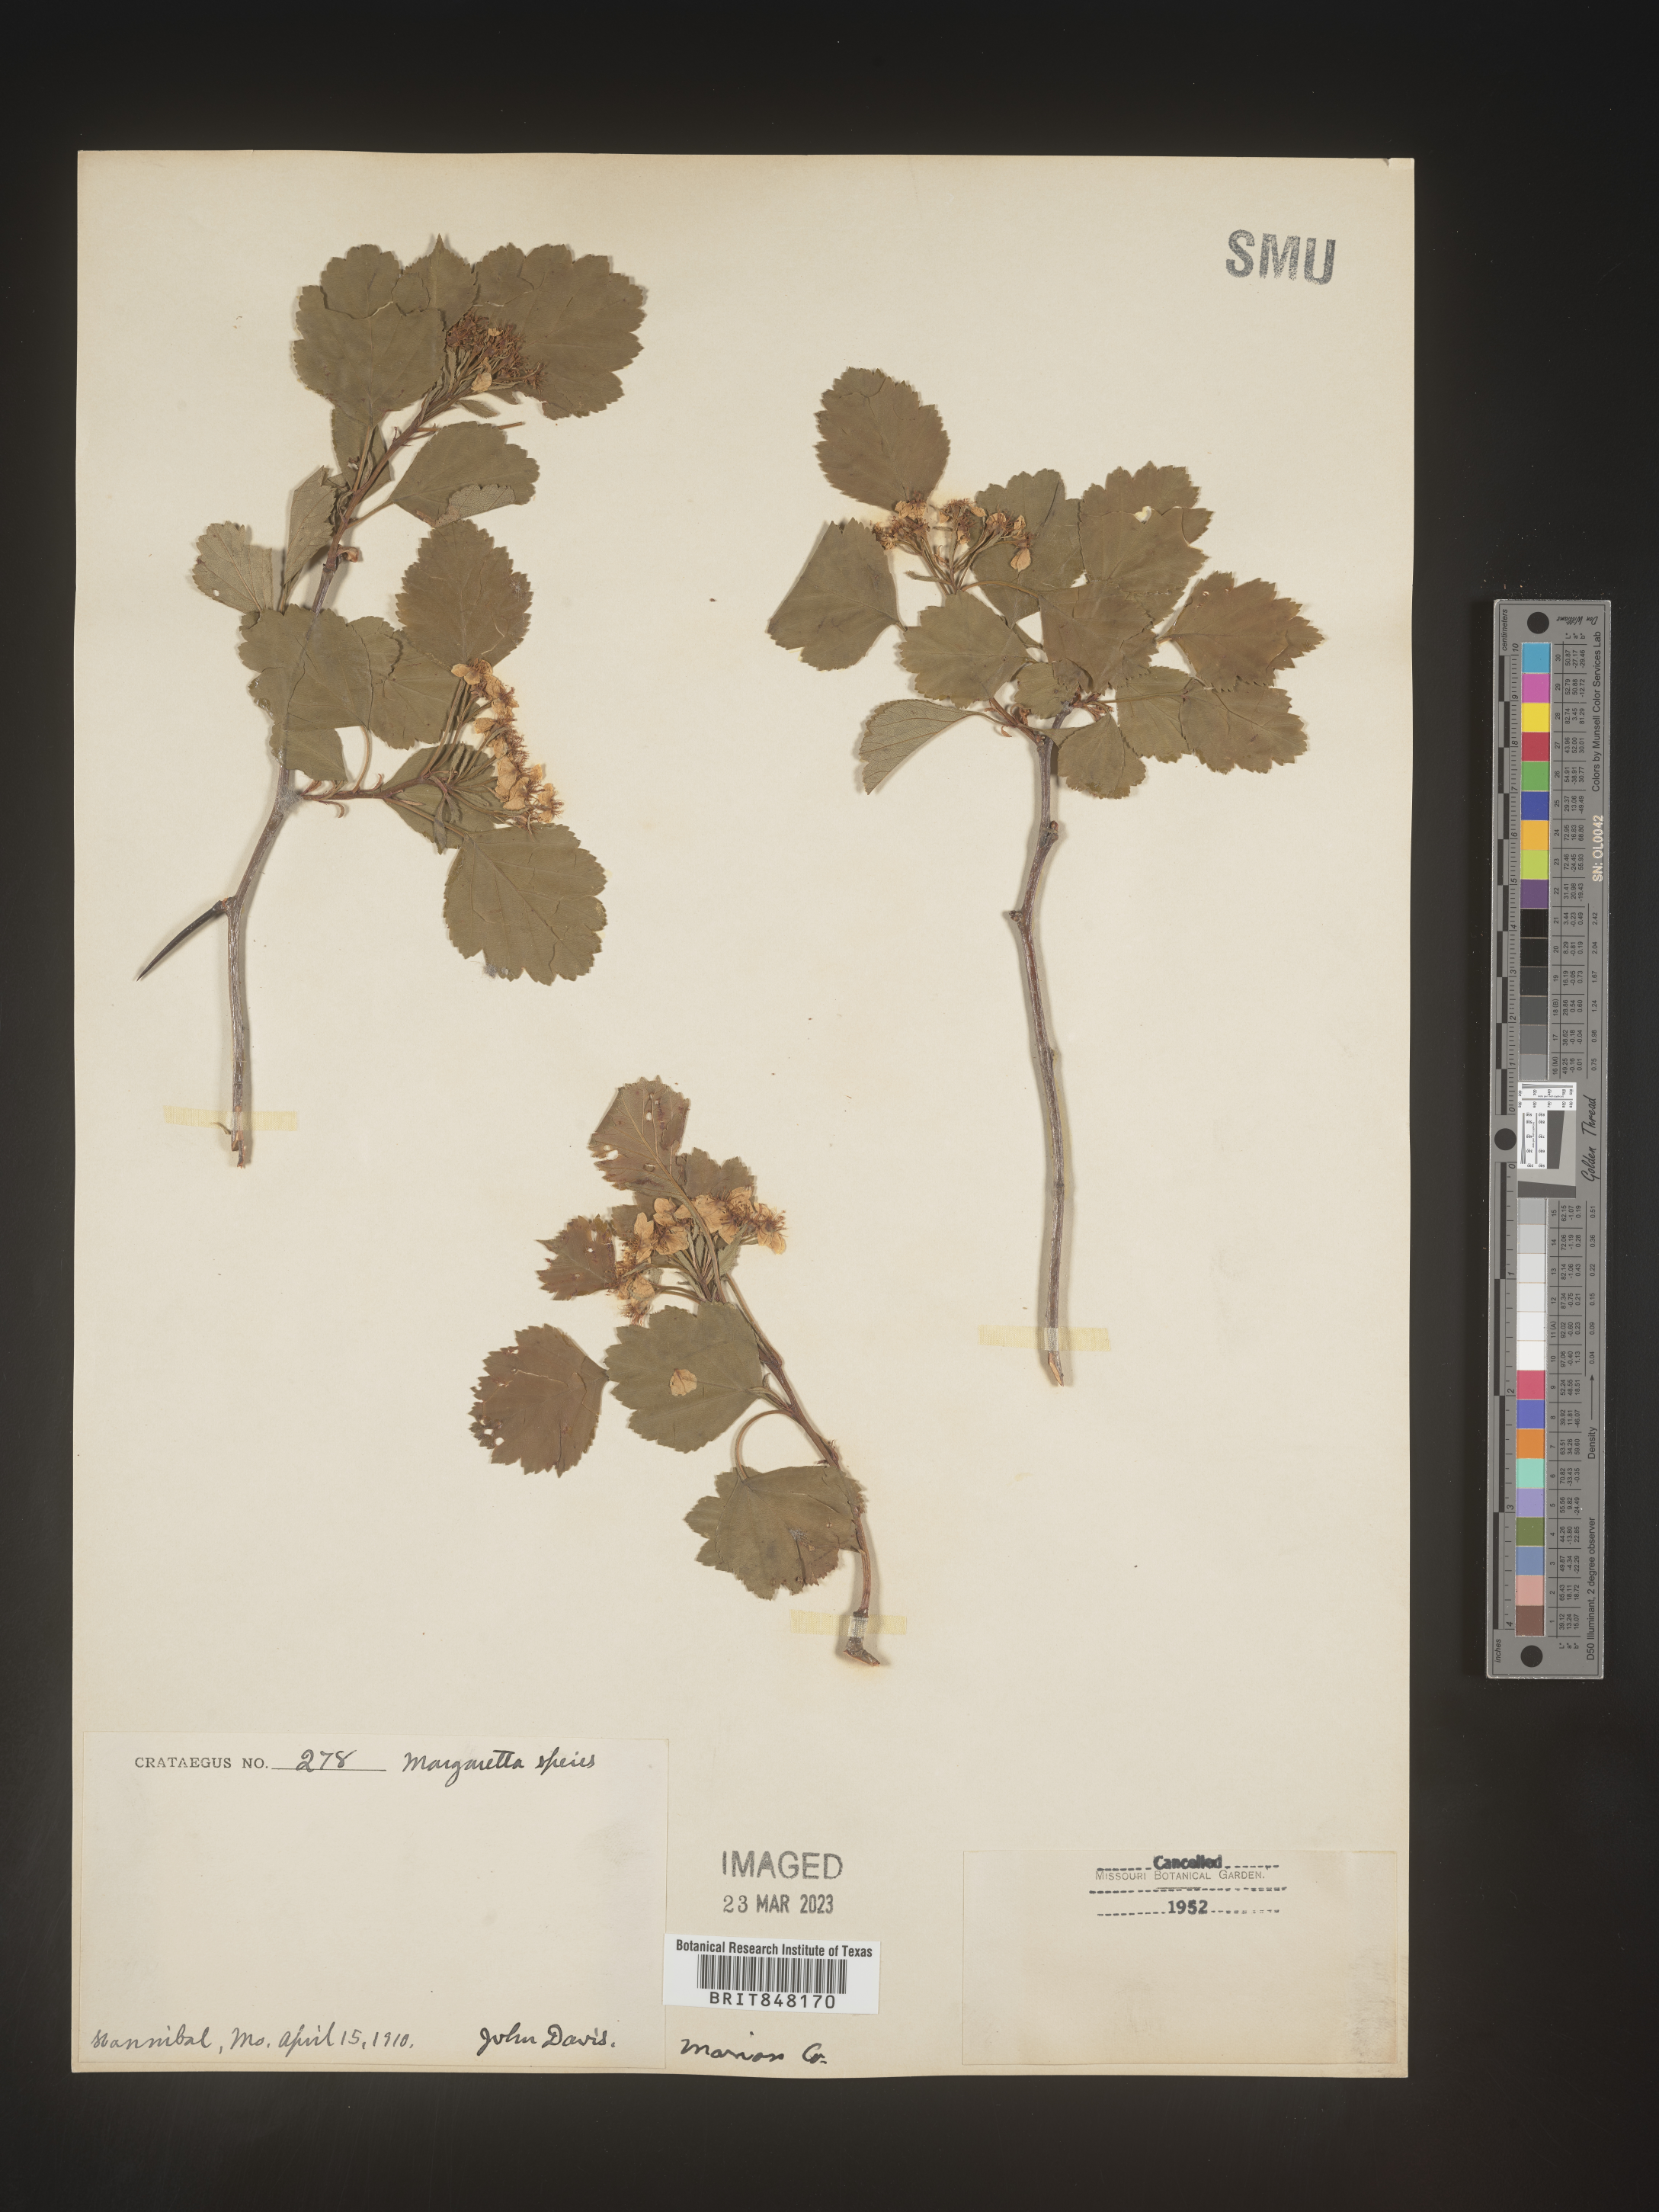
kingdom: Plantae
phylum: Tracheophyta
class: Magnoliopsida
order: Rosales
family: Rosaceae
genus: Crataegus
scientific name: Crataegus margaretta
